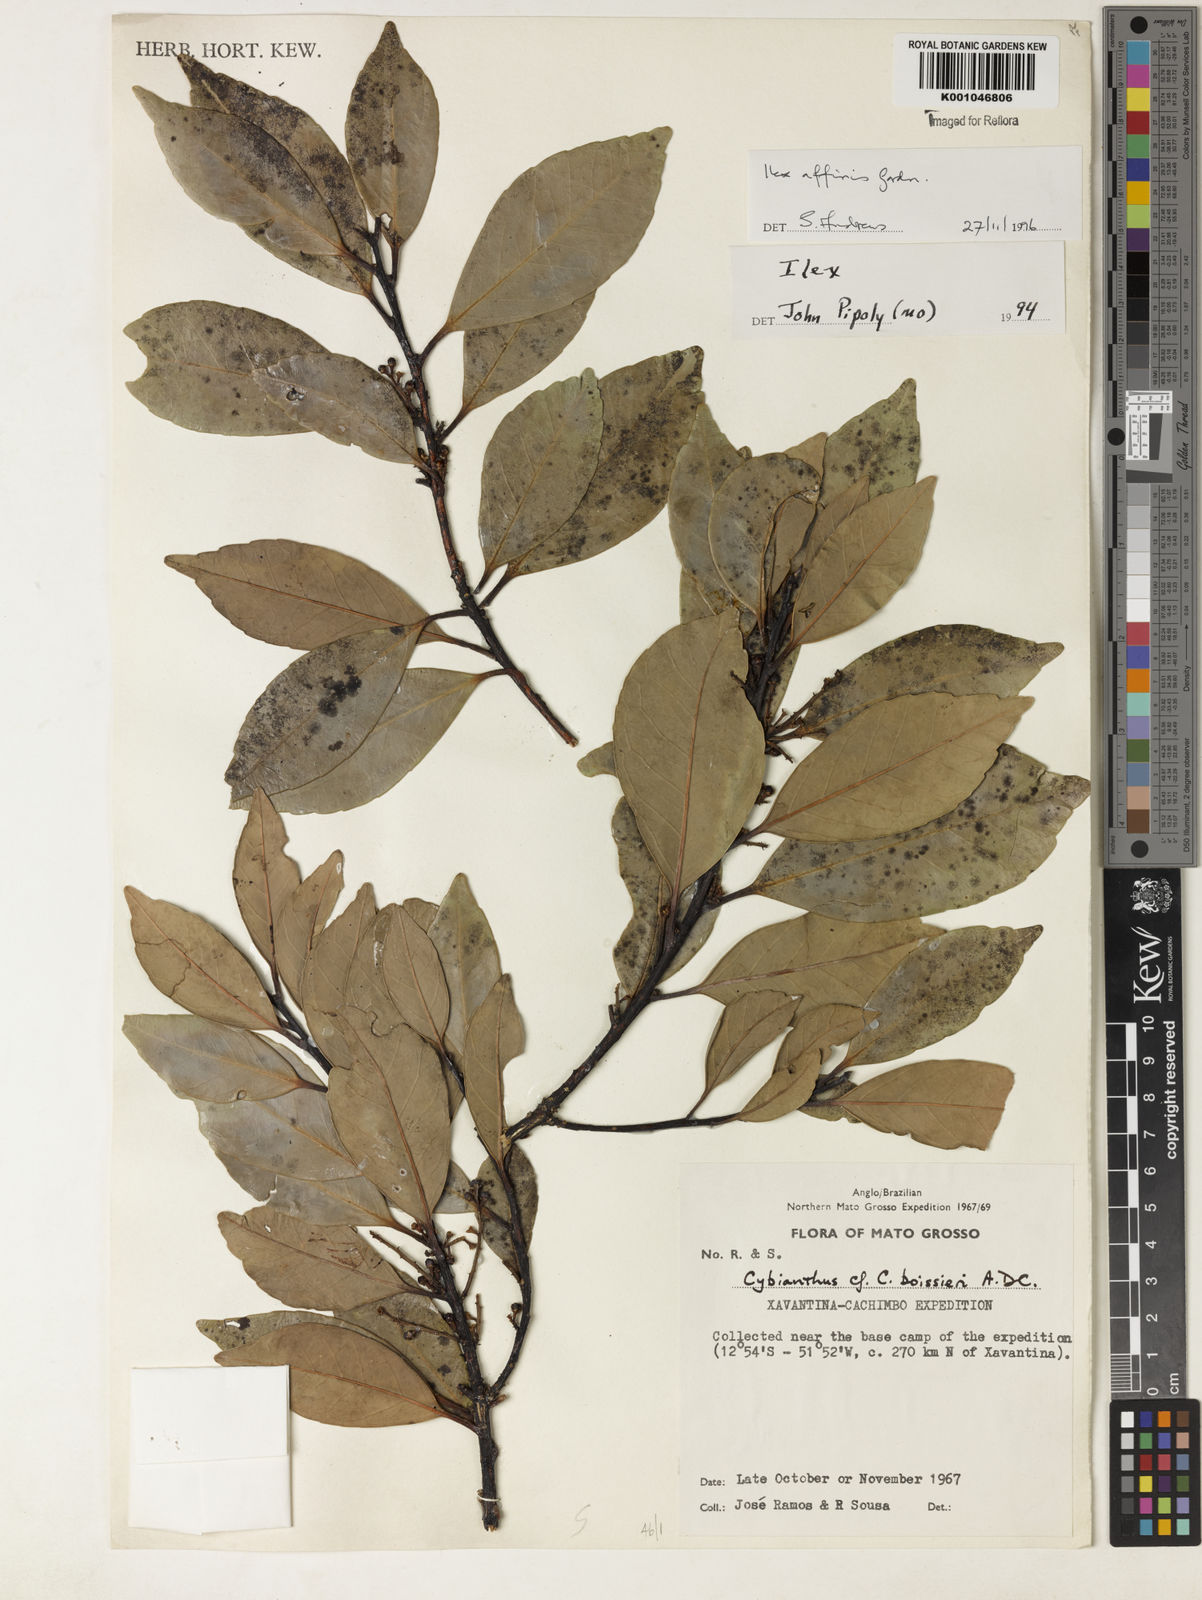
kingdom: Plantae
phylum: Tracheophyta
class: Magnoliopsida
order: Aquifoliales
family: Aquifoliaceae
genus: Ilex
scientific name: Ilex affinis
